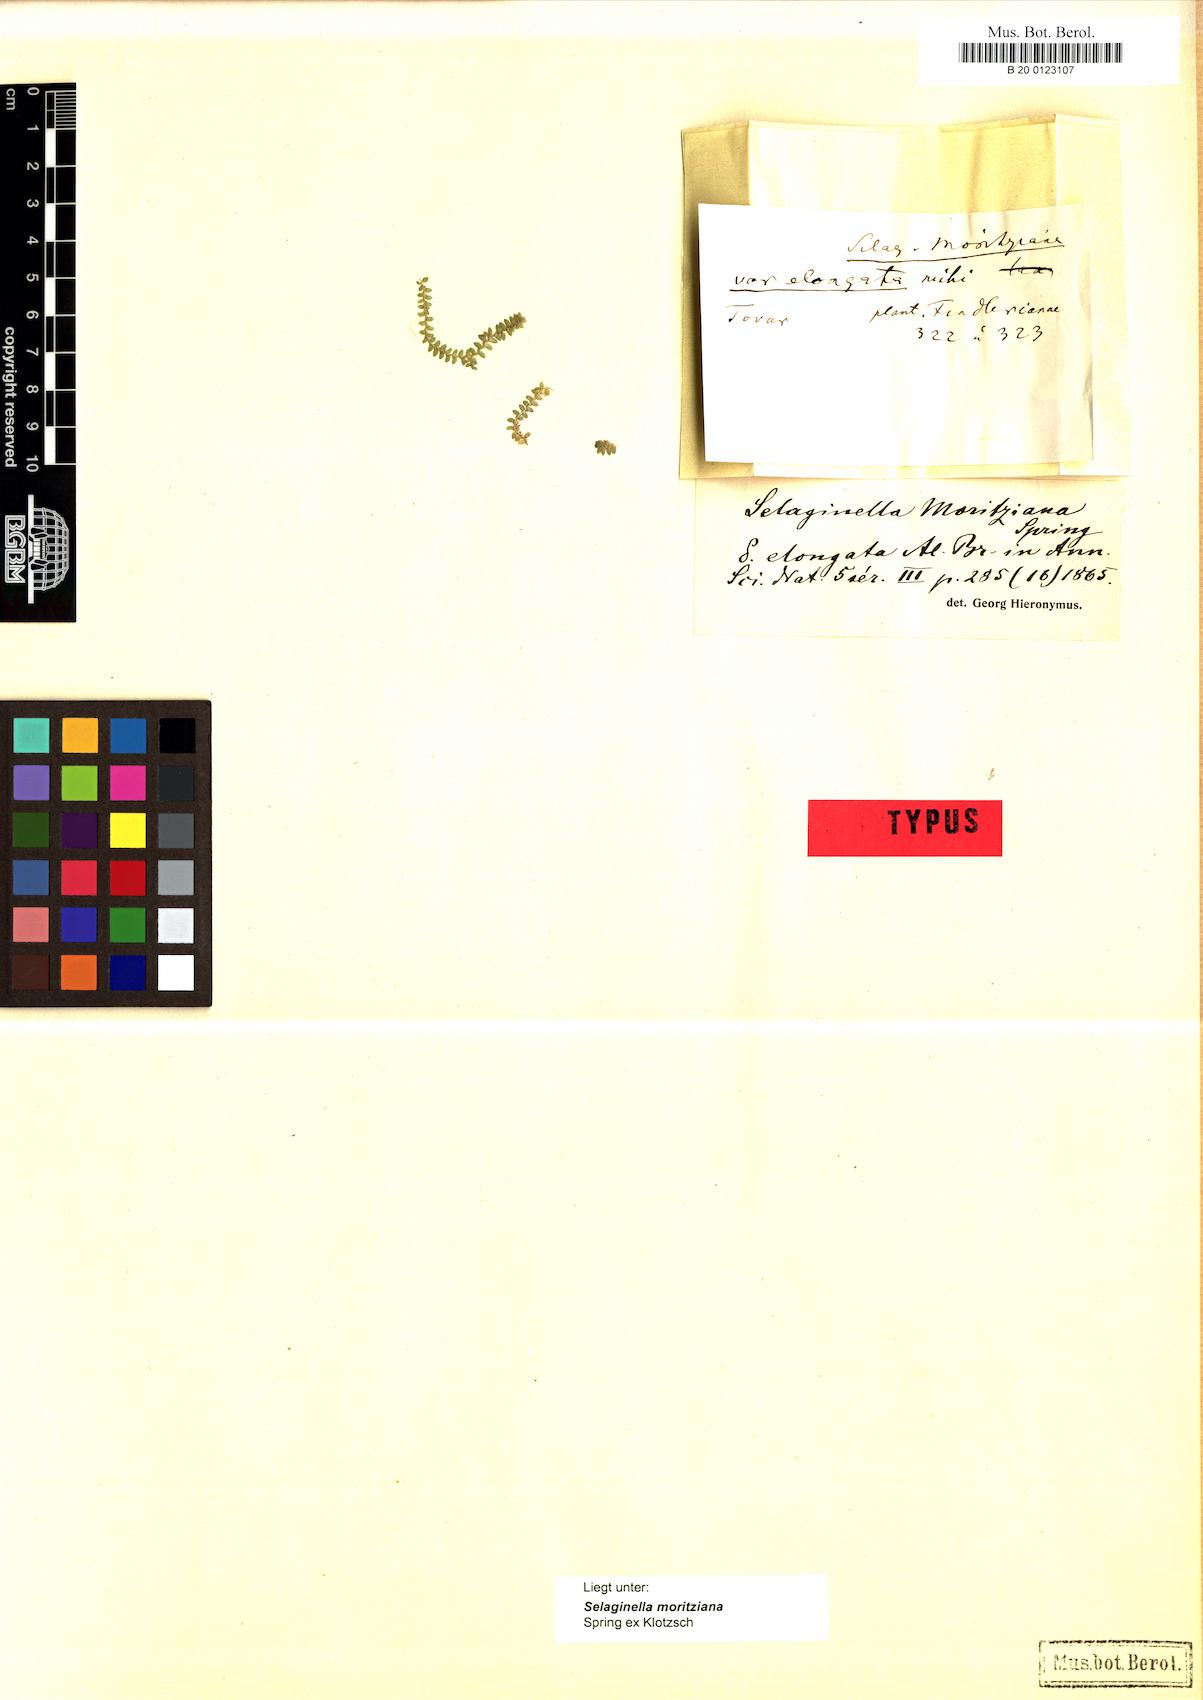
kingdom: Plantae
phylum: Tracheophyta
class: Lycopodiopsida
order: Selaginellales
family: Selaginellaceae
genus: Selaginella
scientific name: Selaginella moritziana
